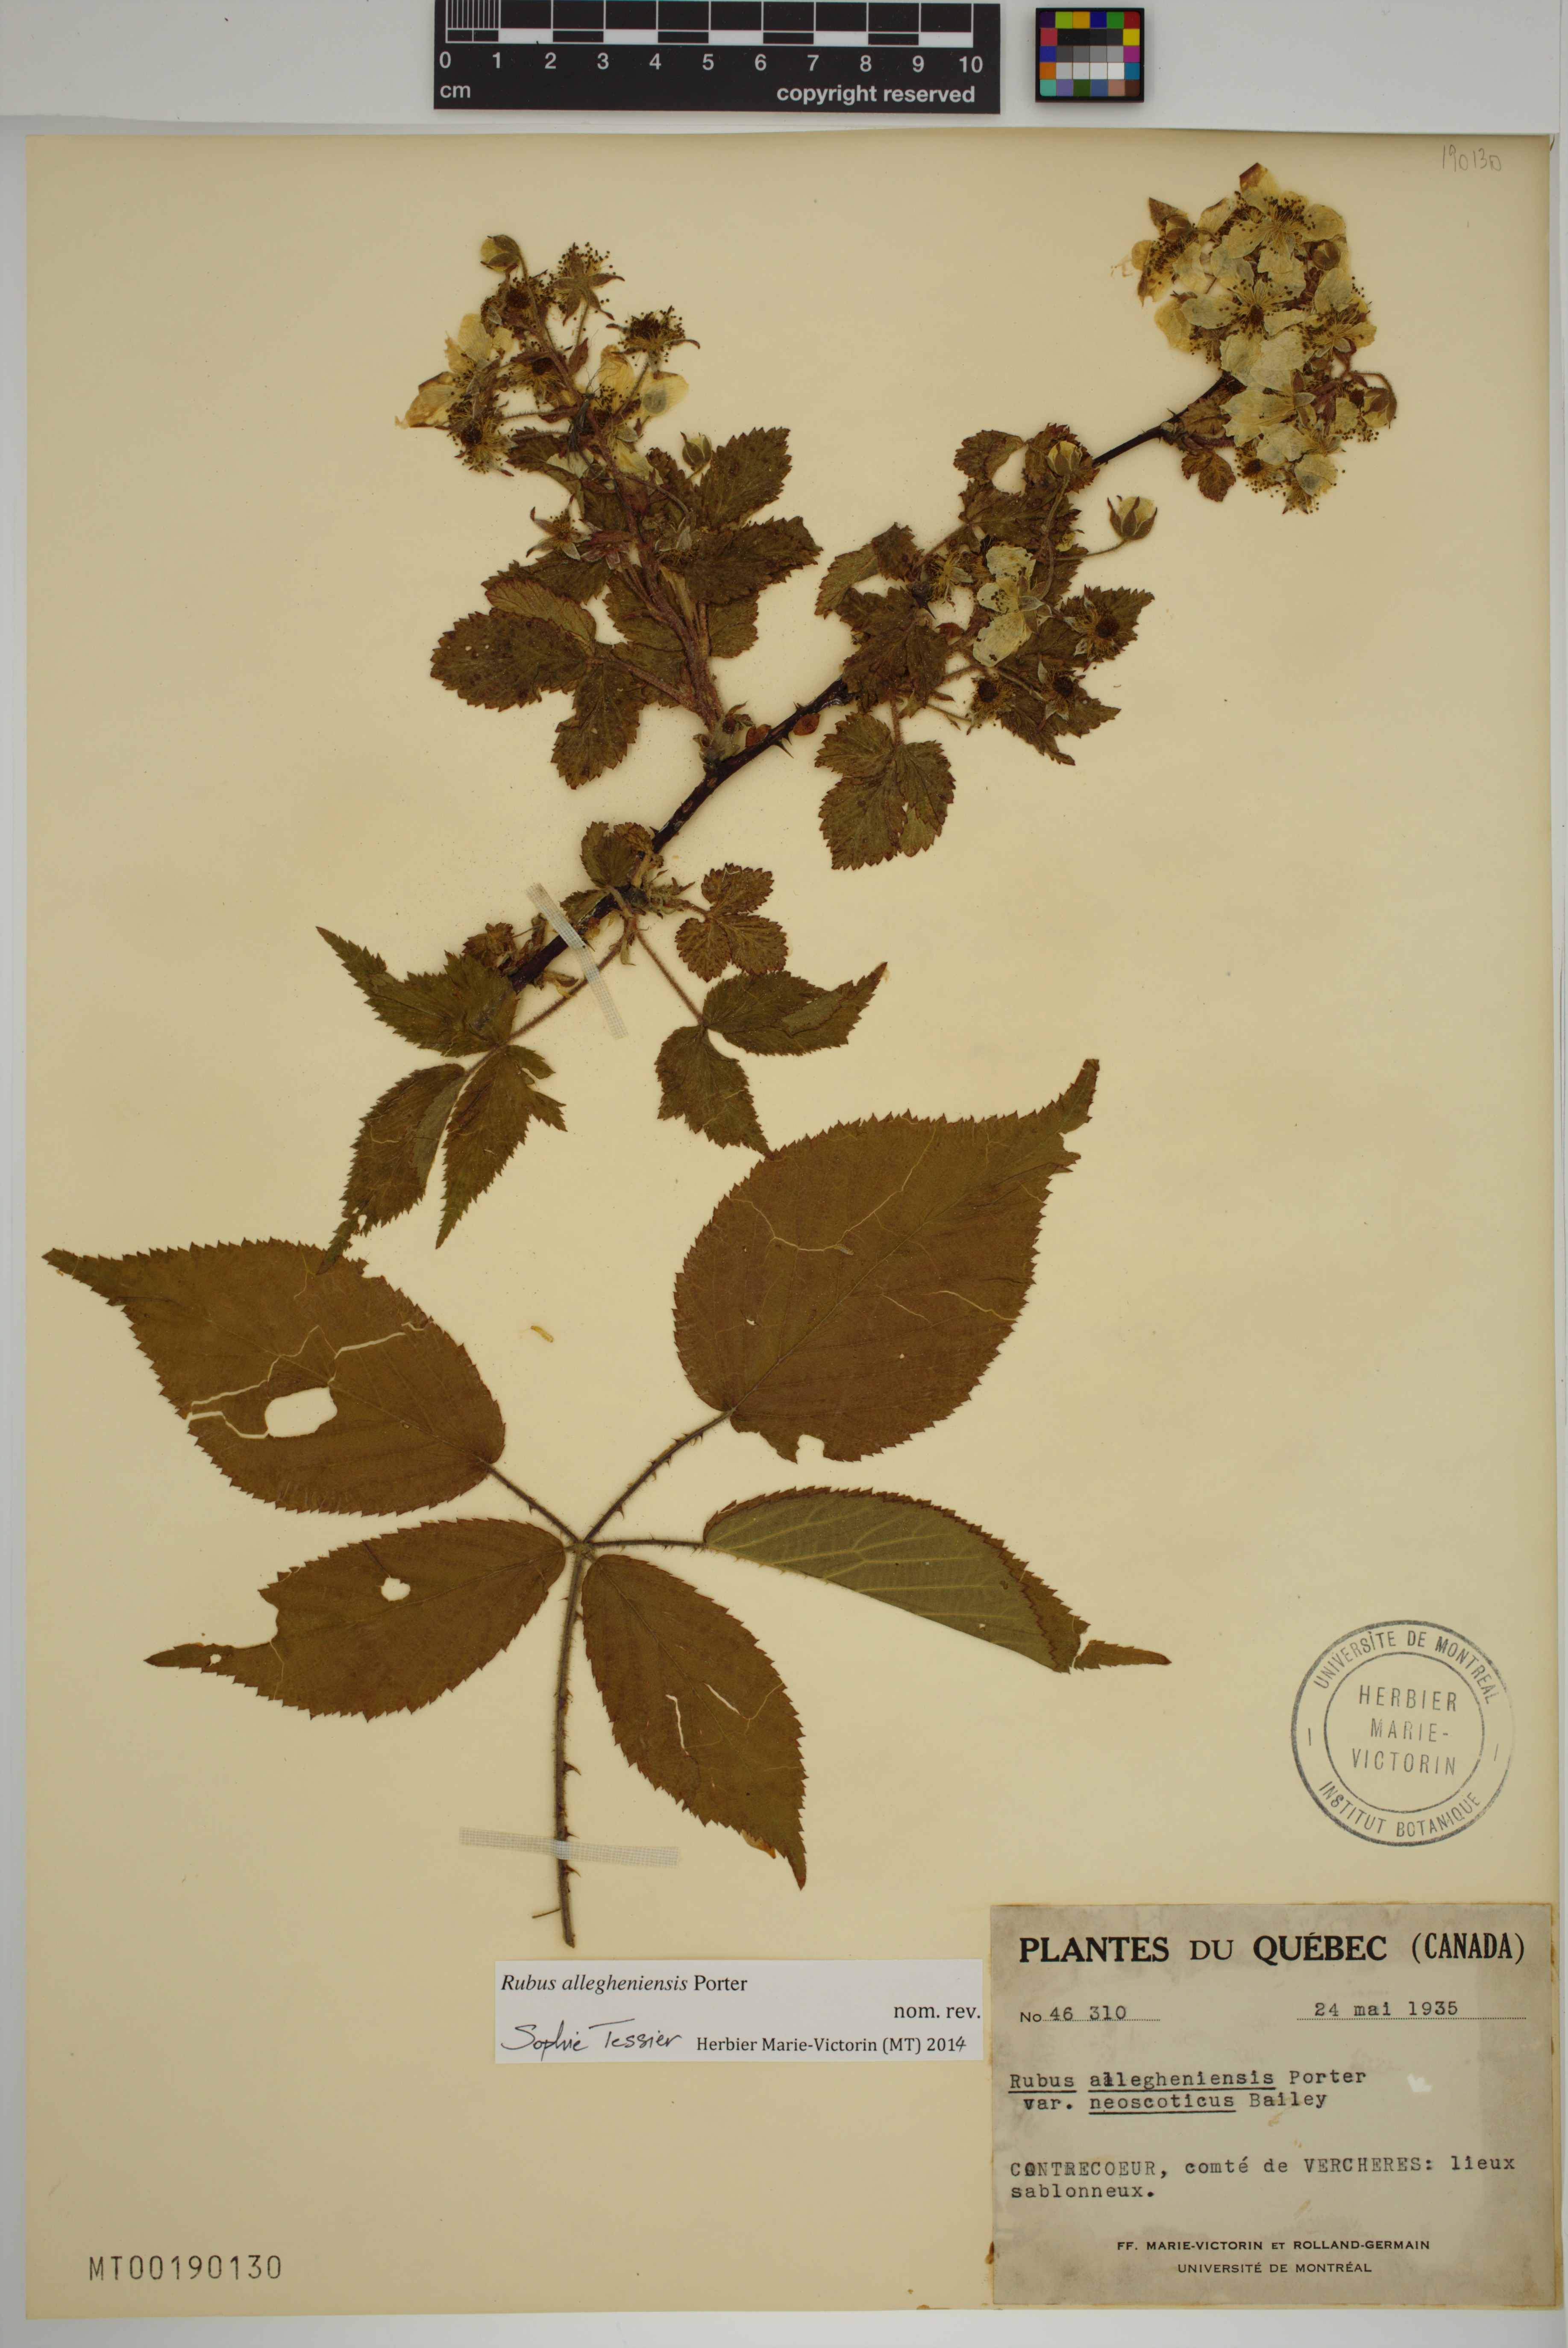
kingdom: Plantae
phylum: Tracheophyta
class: Magnoliopsida
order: Rosales
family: Rosaceae
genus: Rubus
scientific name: Rubus allegheniensis
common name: Allegheny blackberry
